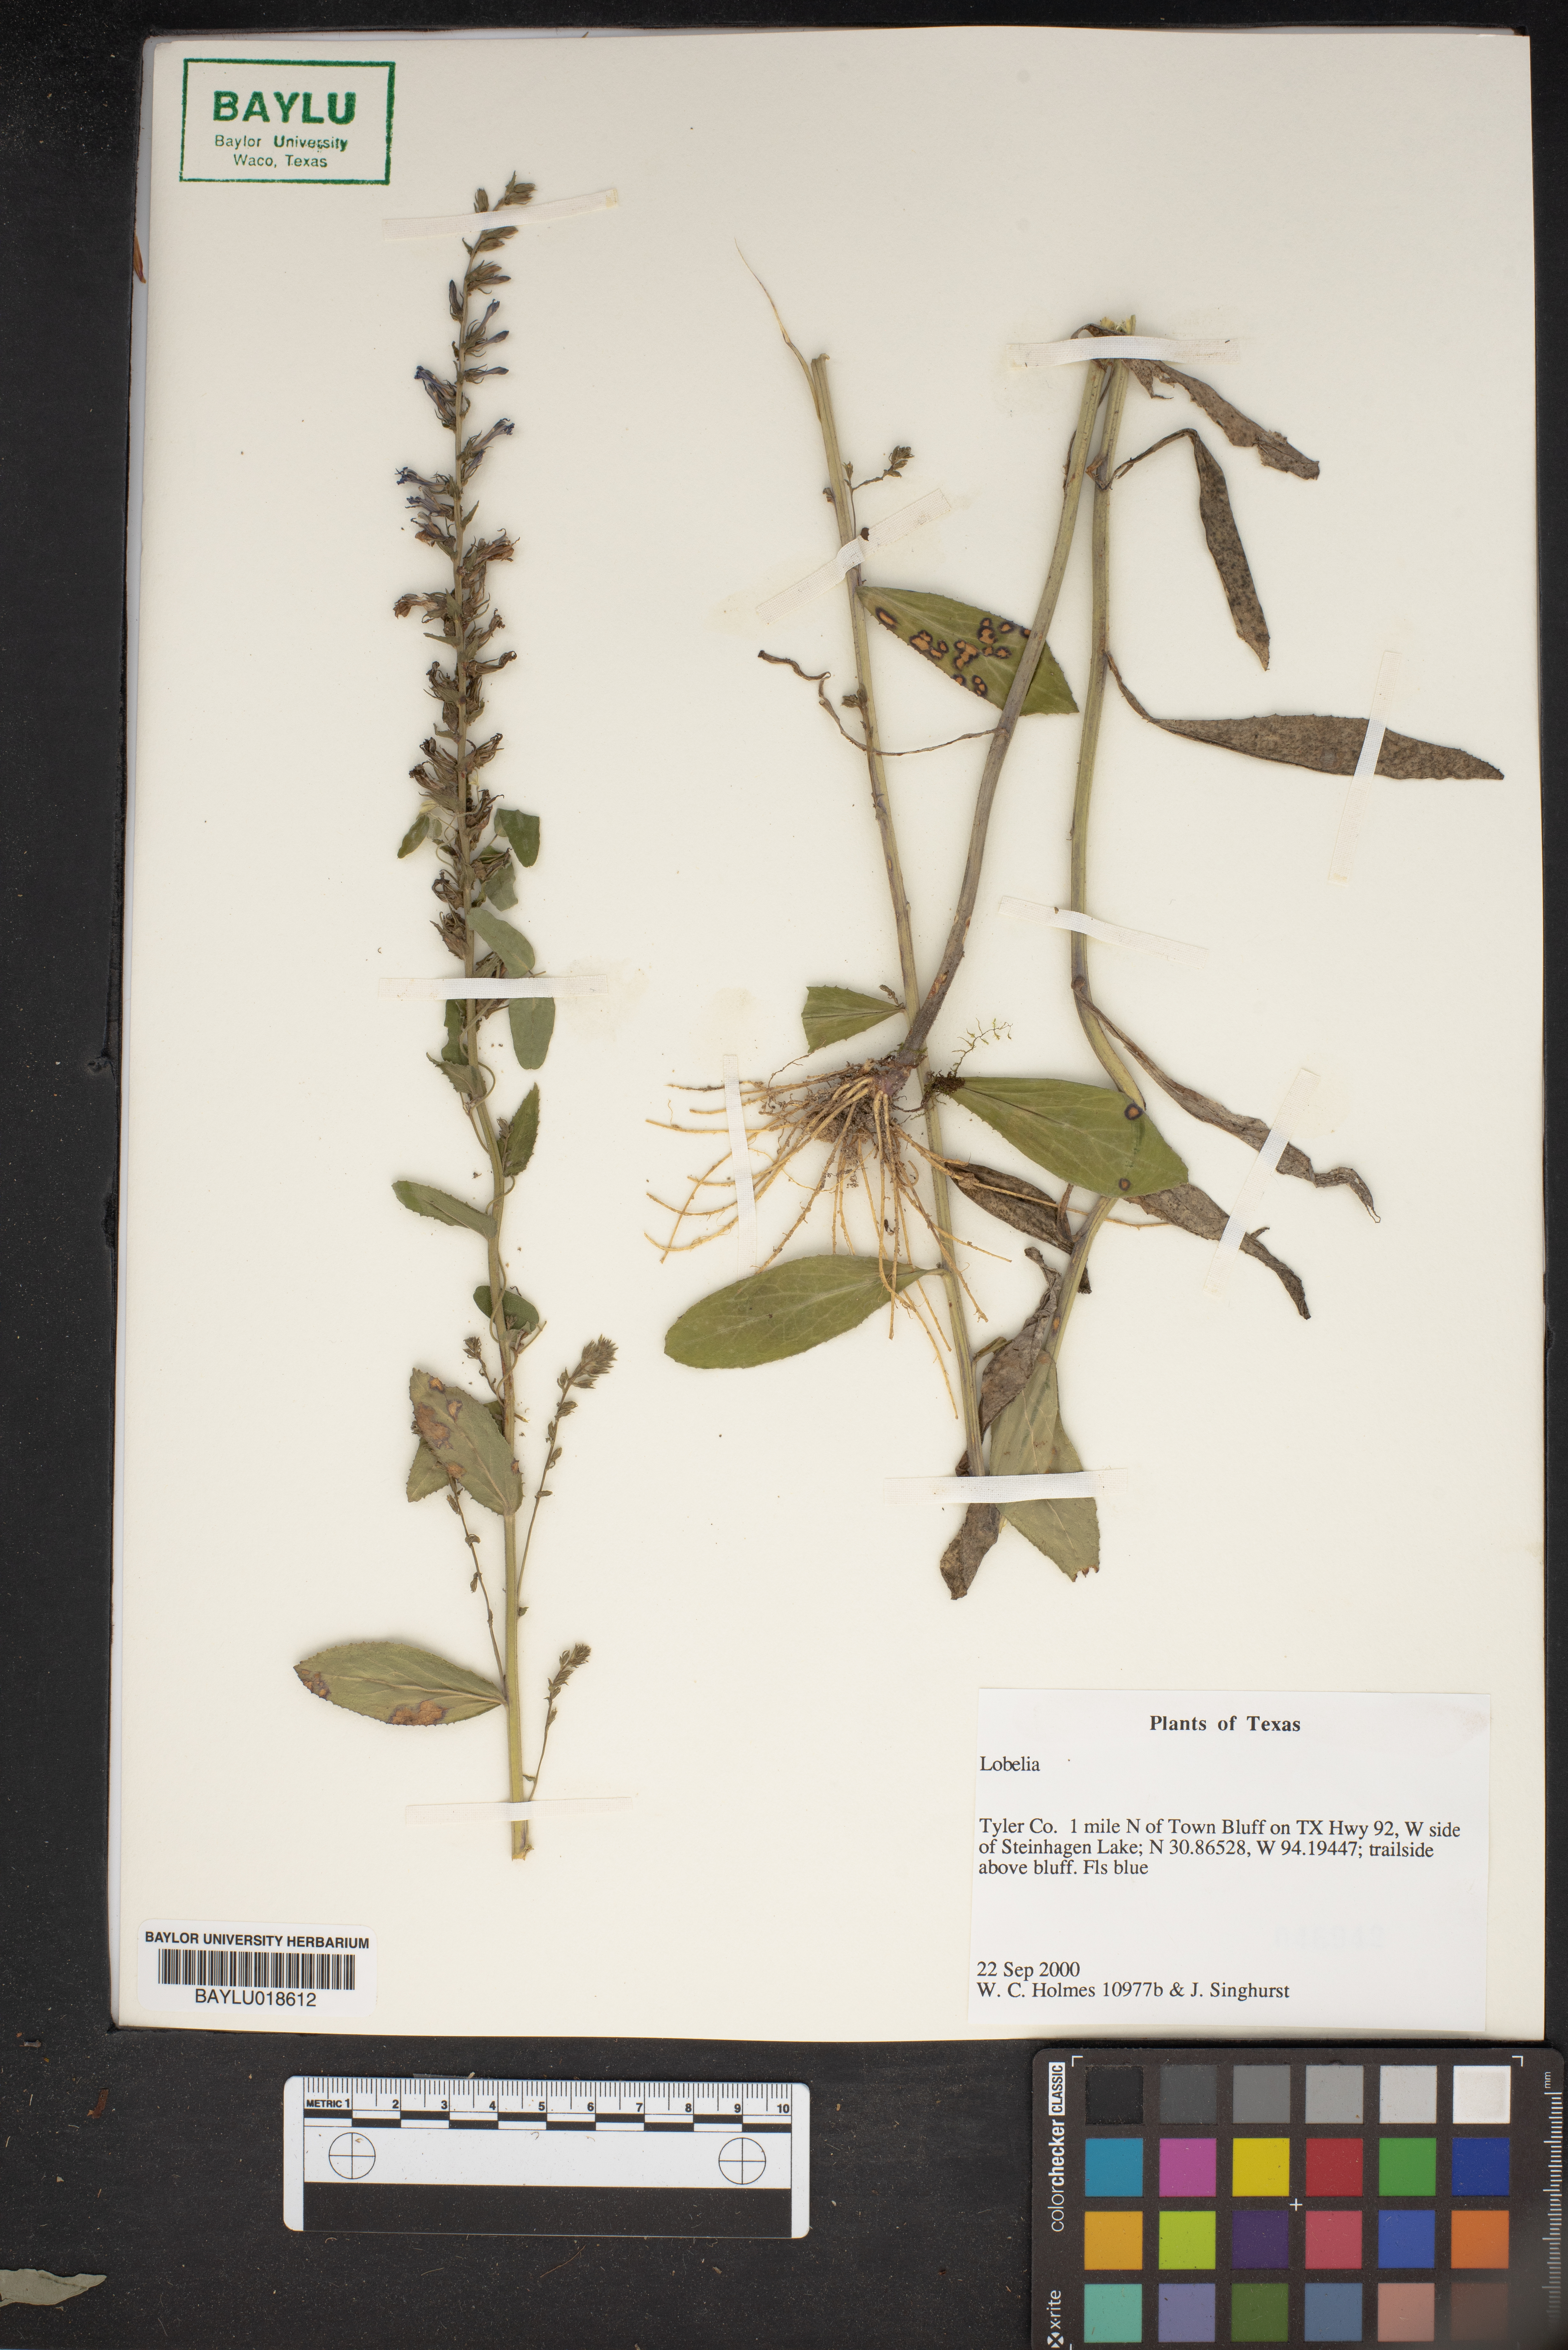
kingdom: Plantae
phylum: Tracheophyta
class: Magnoliopsida
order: Asterales
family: Campanulaceae
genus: Lobelia
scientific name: Lobelia
